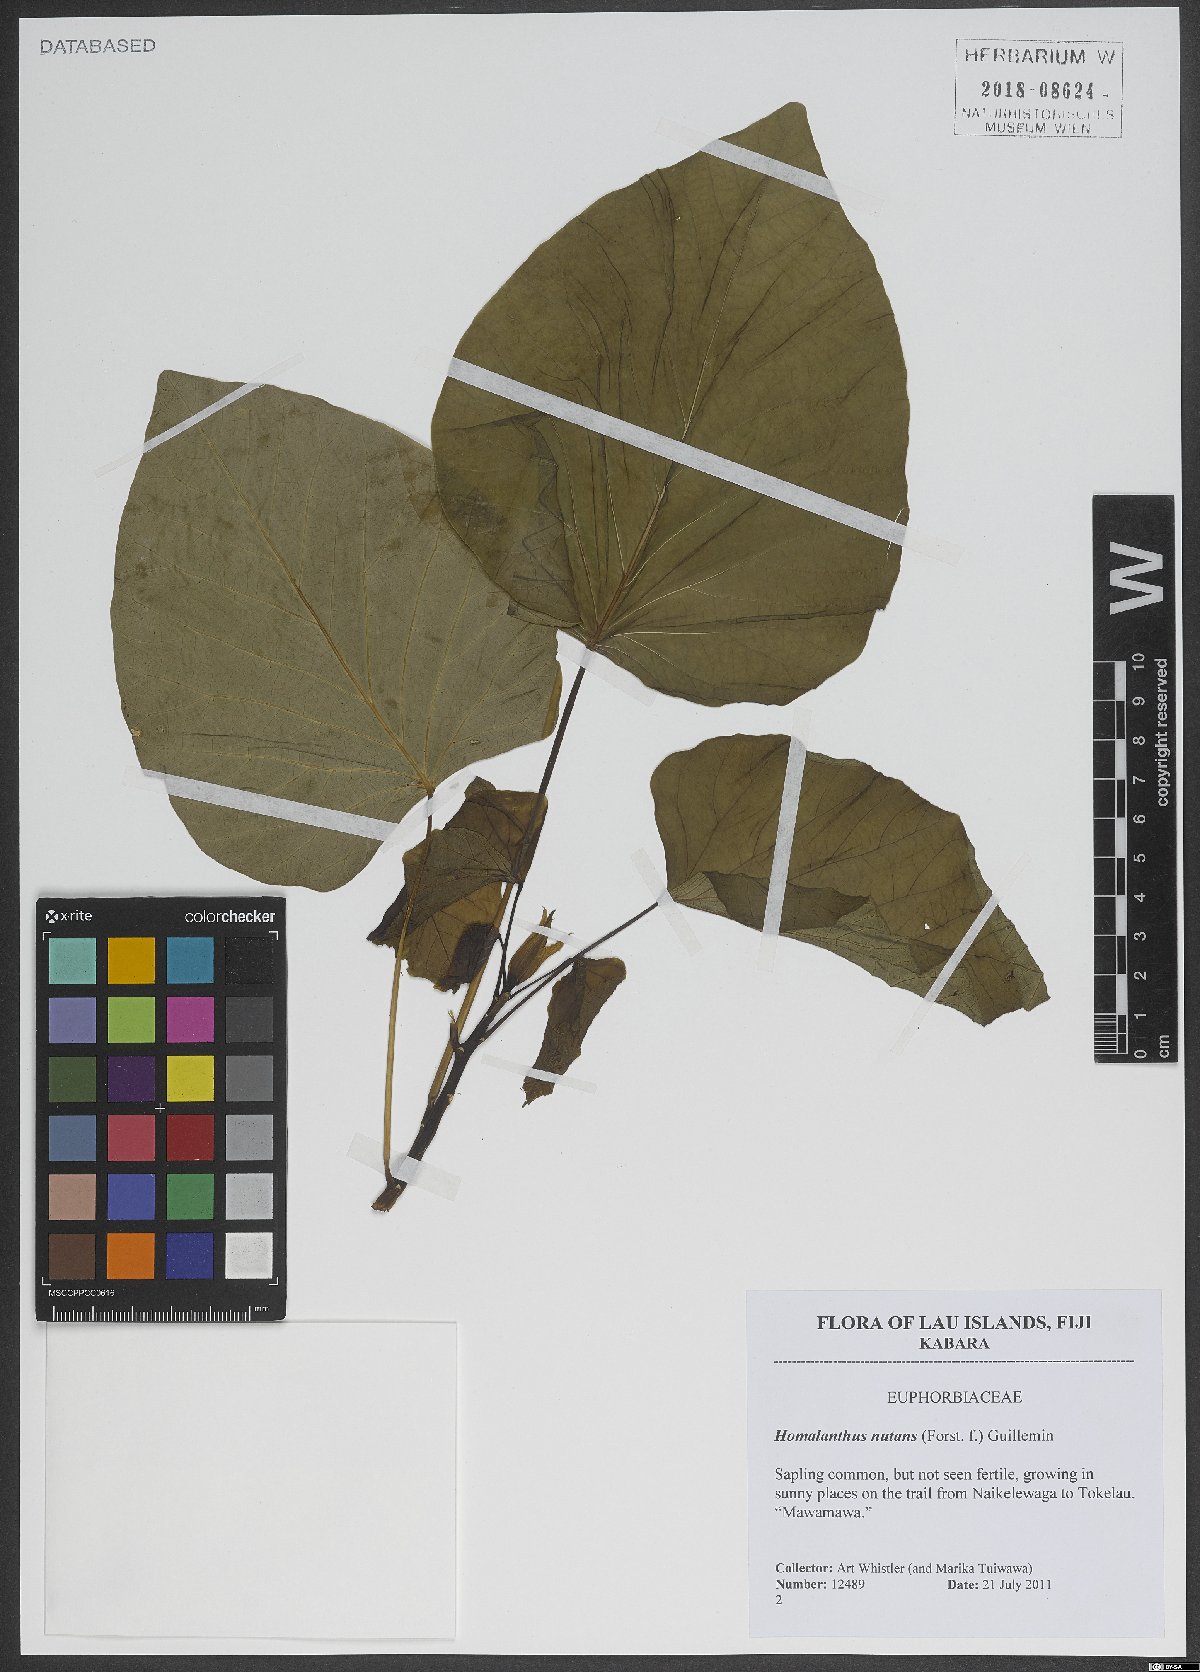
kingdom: Plantae
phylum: Tracheophyta
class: Magnoliopsida
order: Malpighiales
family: Euphorbiaceae
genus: Homalanthus
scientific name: Homalanthus nutans
